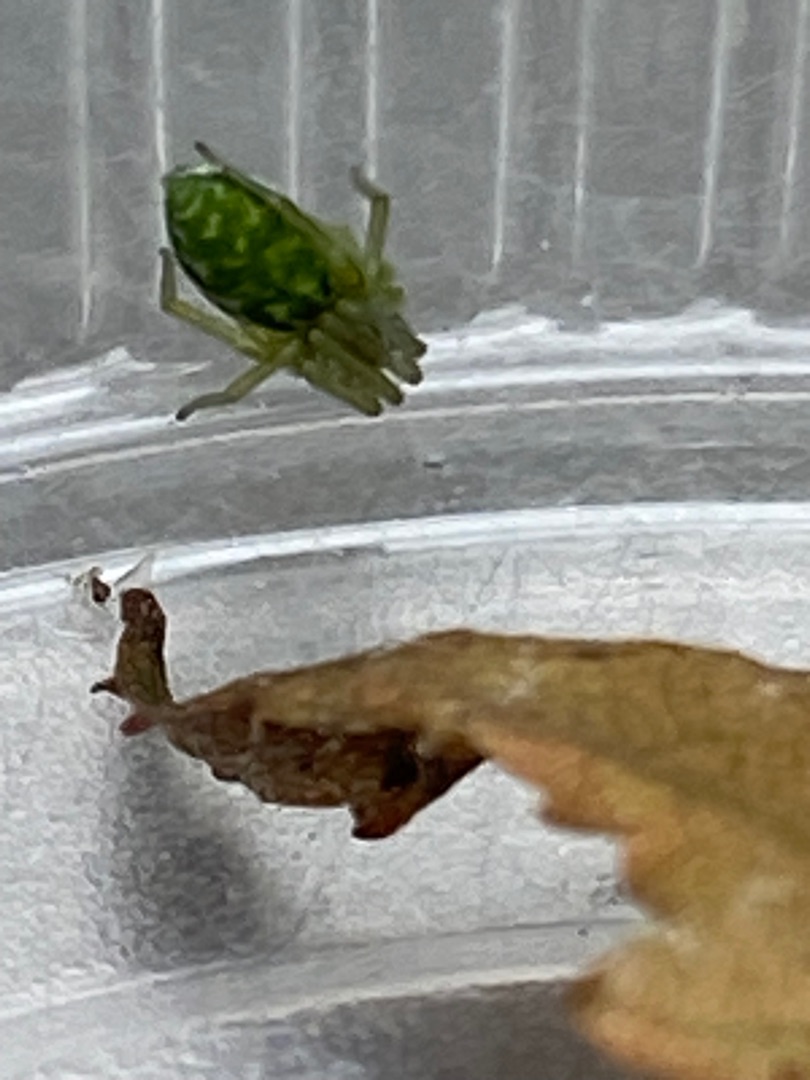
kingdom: Animalia
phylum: Arthropoda
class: Arachnida
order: Araneae
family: Dictynidae
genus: Nigma
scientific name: Nigma walckenaeri
